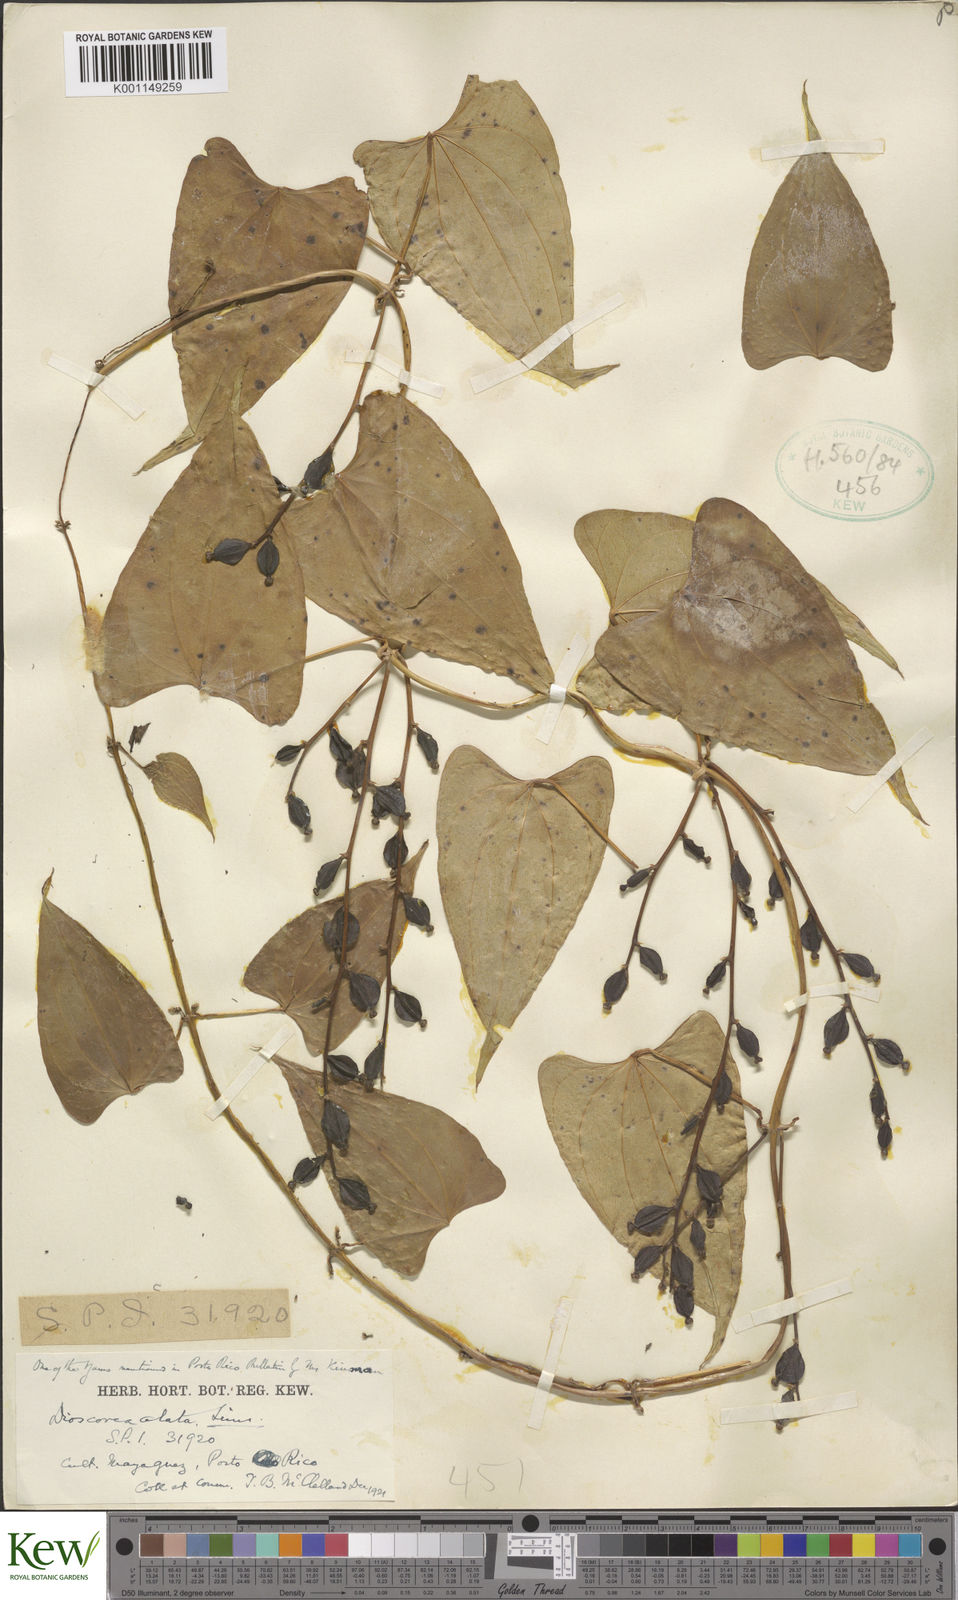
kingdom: Plantae
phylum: Tracheophyta
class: Liliopsida
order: Dioscoreales
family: Dioscoreaceae
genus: Dioscorea
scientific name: Dioscorea alata
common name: Water yam
